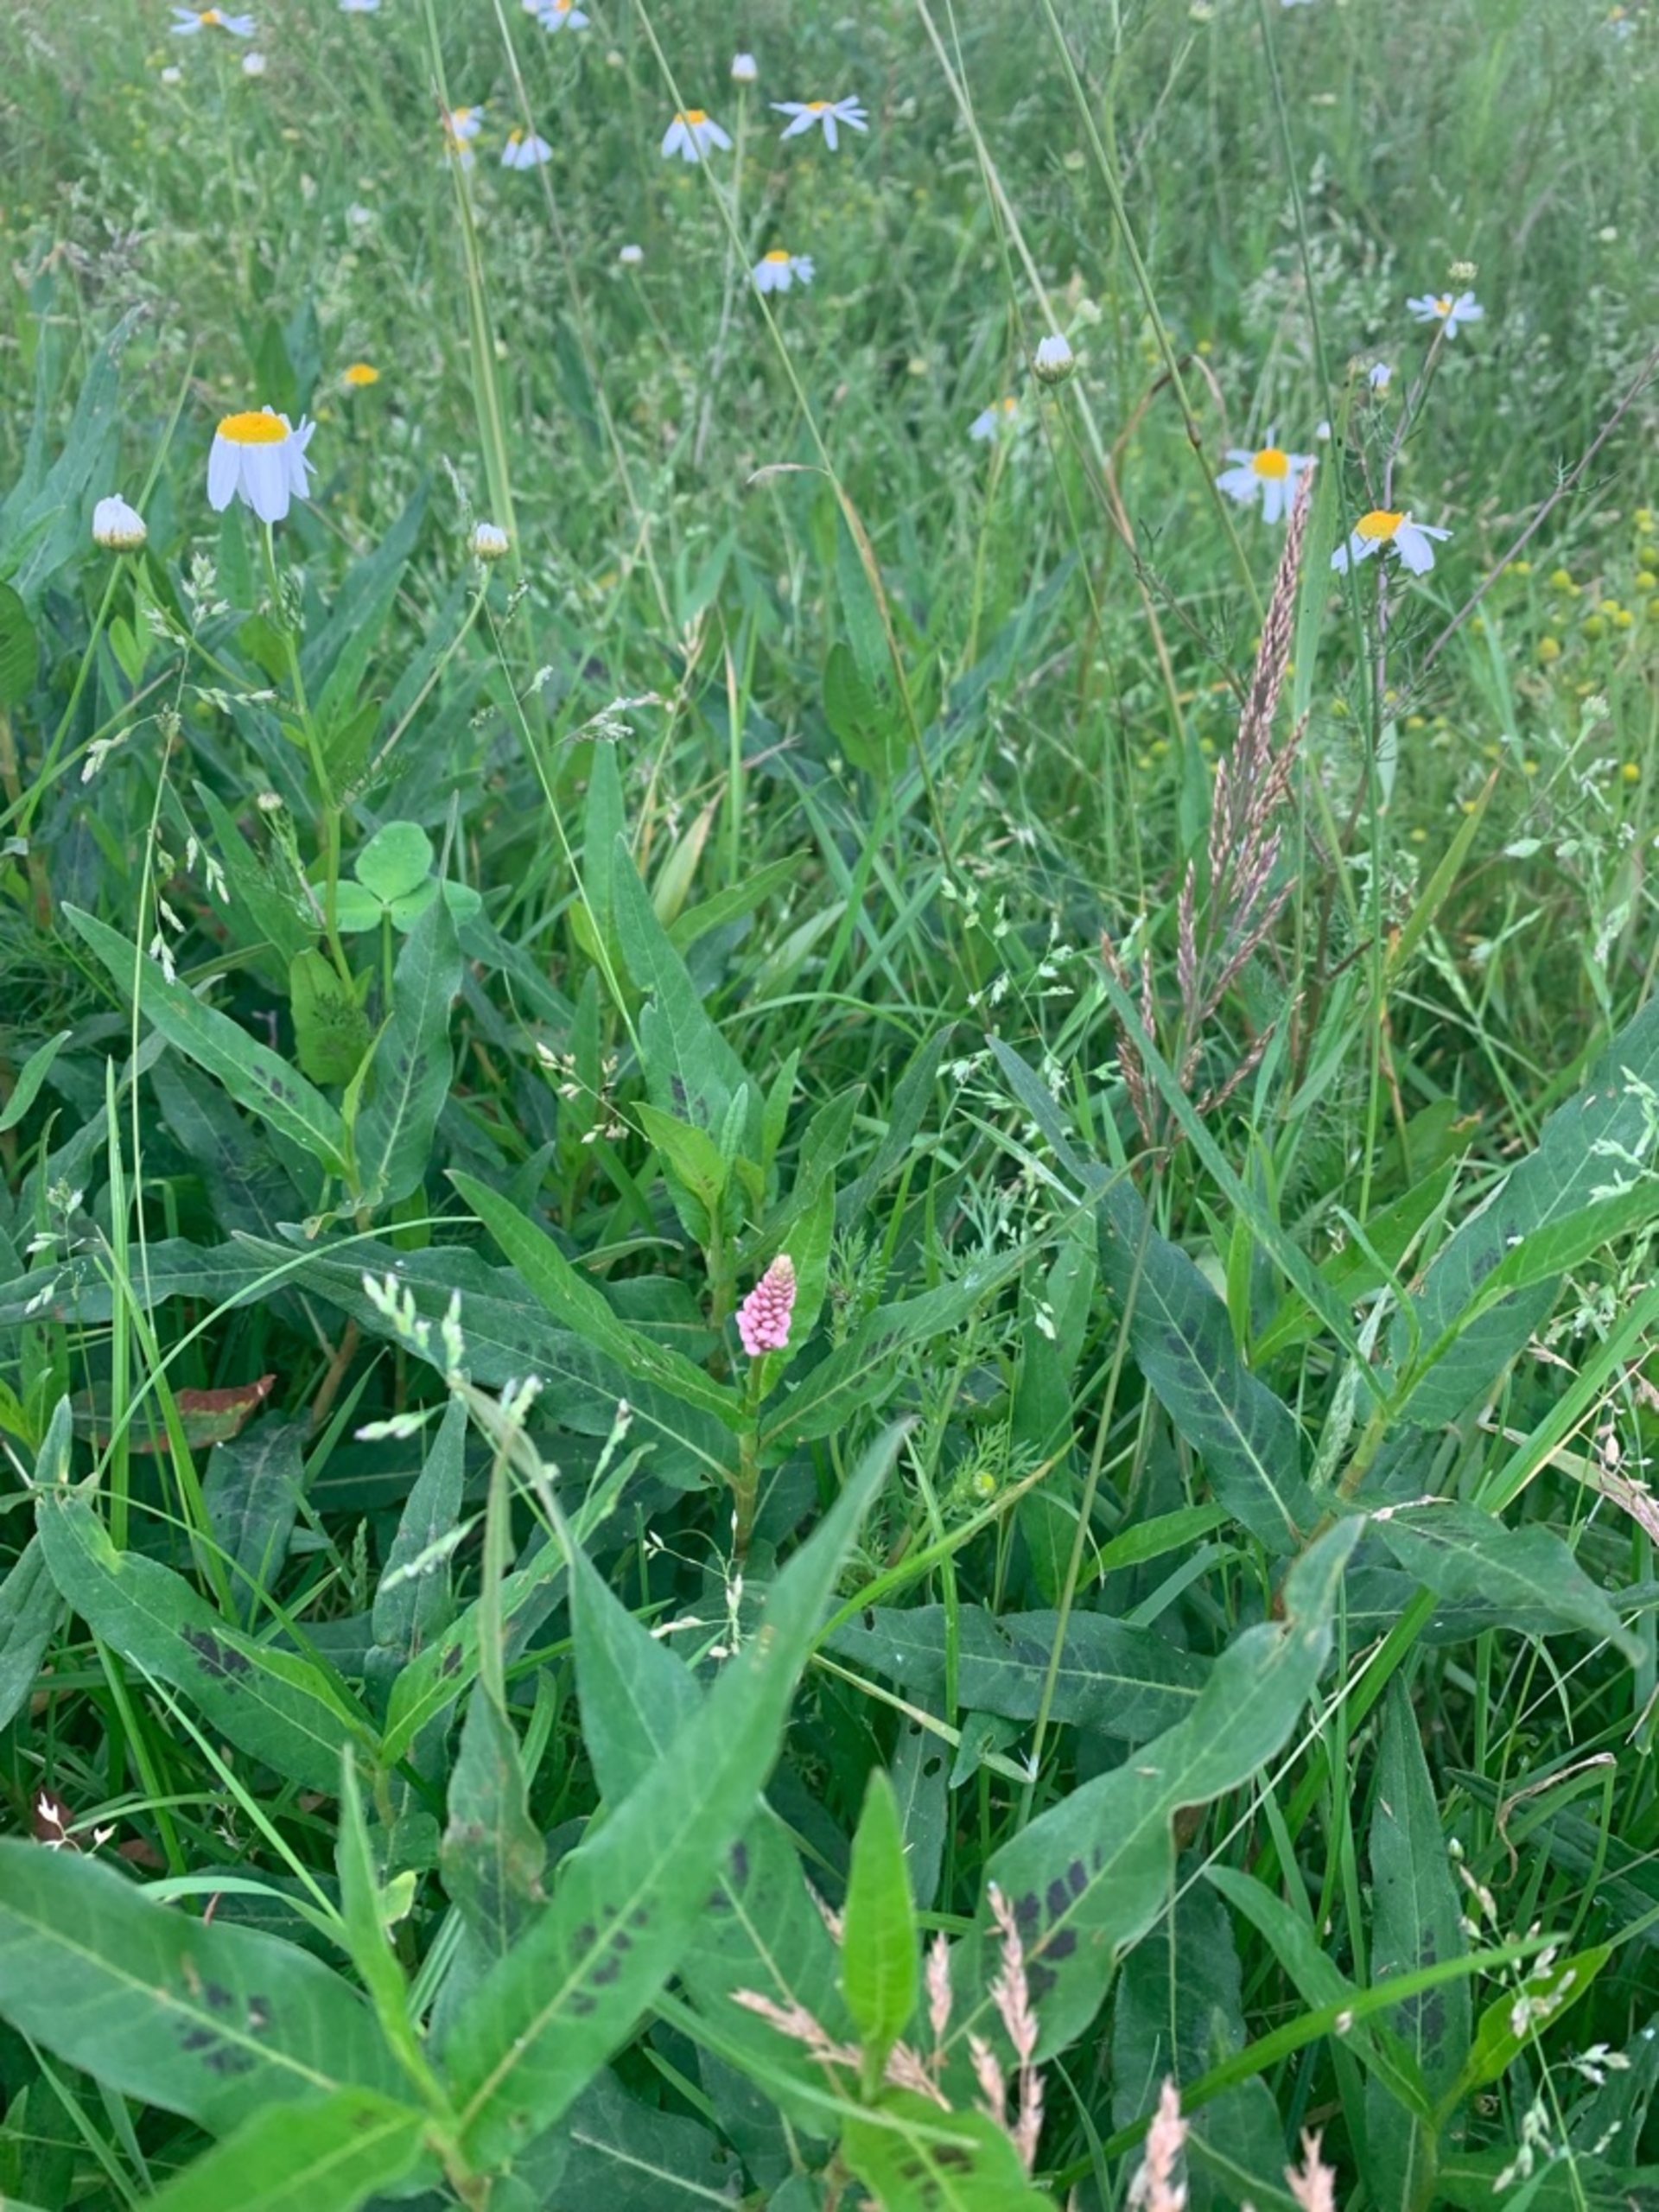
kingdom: Plantae
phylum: Tracheophyta
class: Magnoliopsida
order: Caryophyllales
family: Polygonaceae
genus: Persicaria
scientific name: Persicaria amphibia
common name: Vand-pileurt
